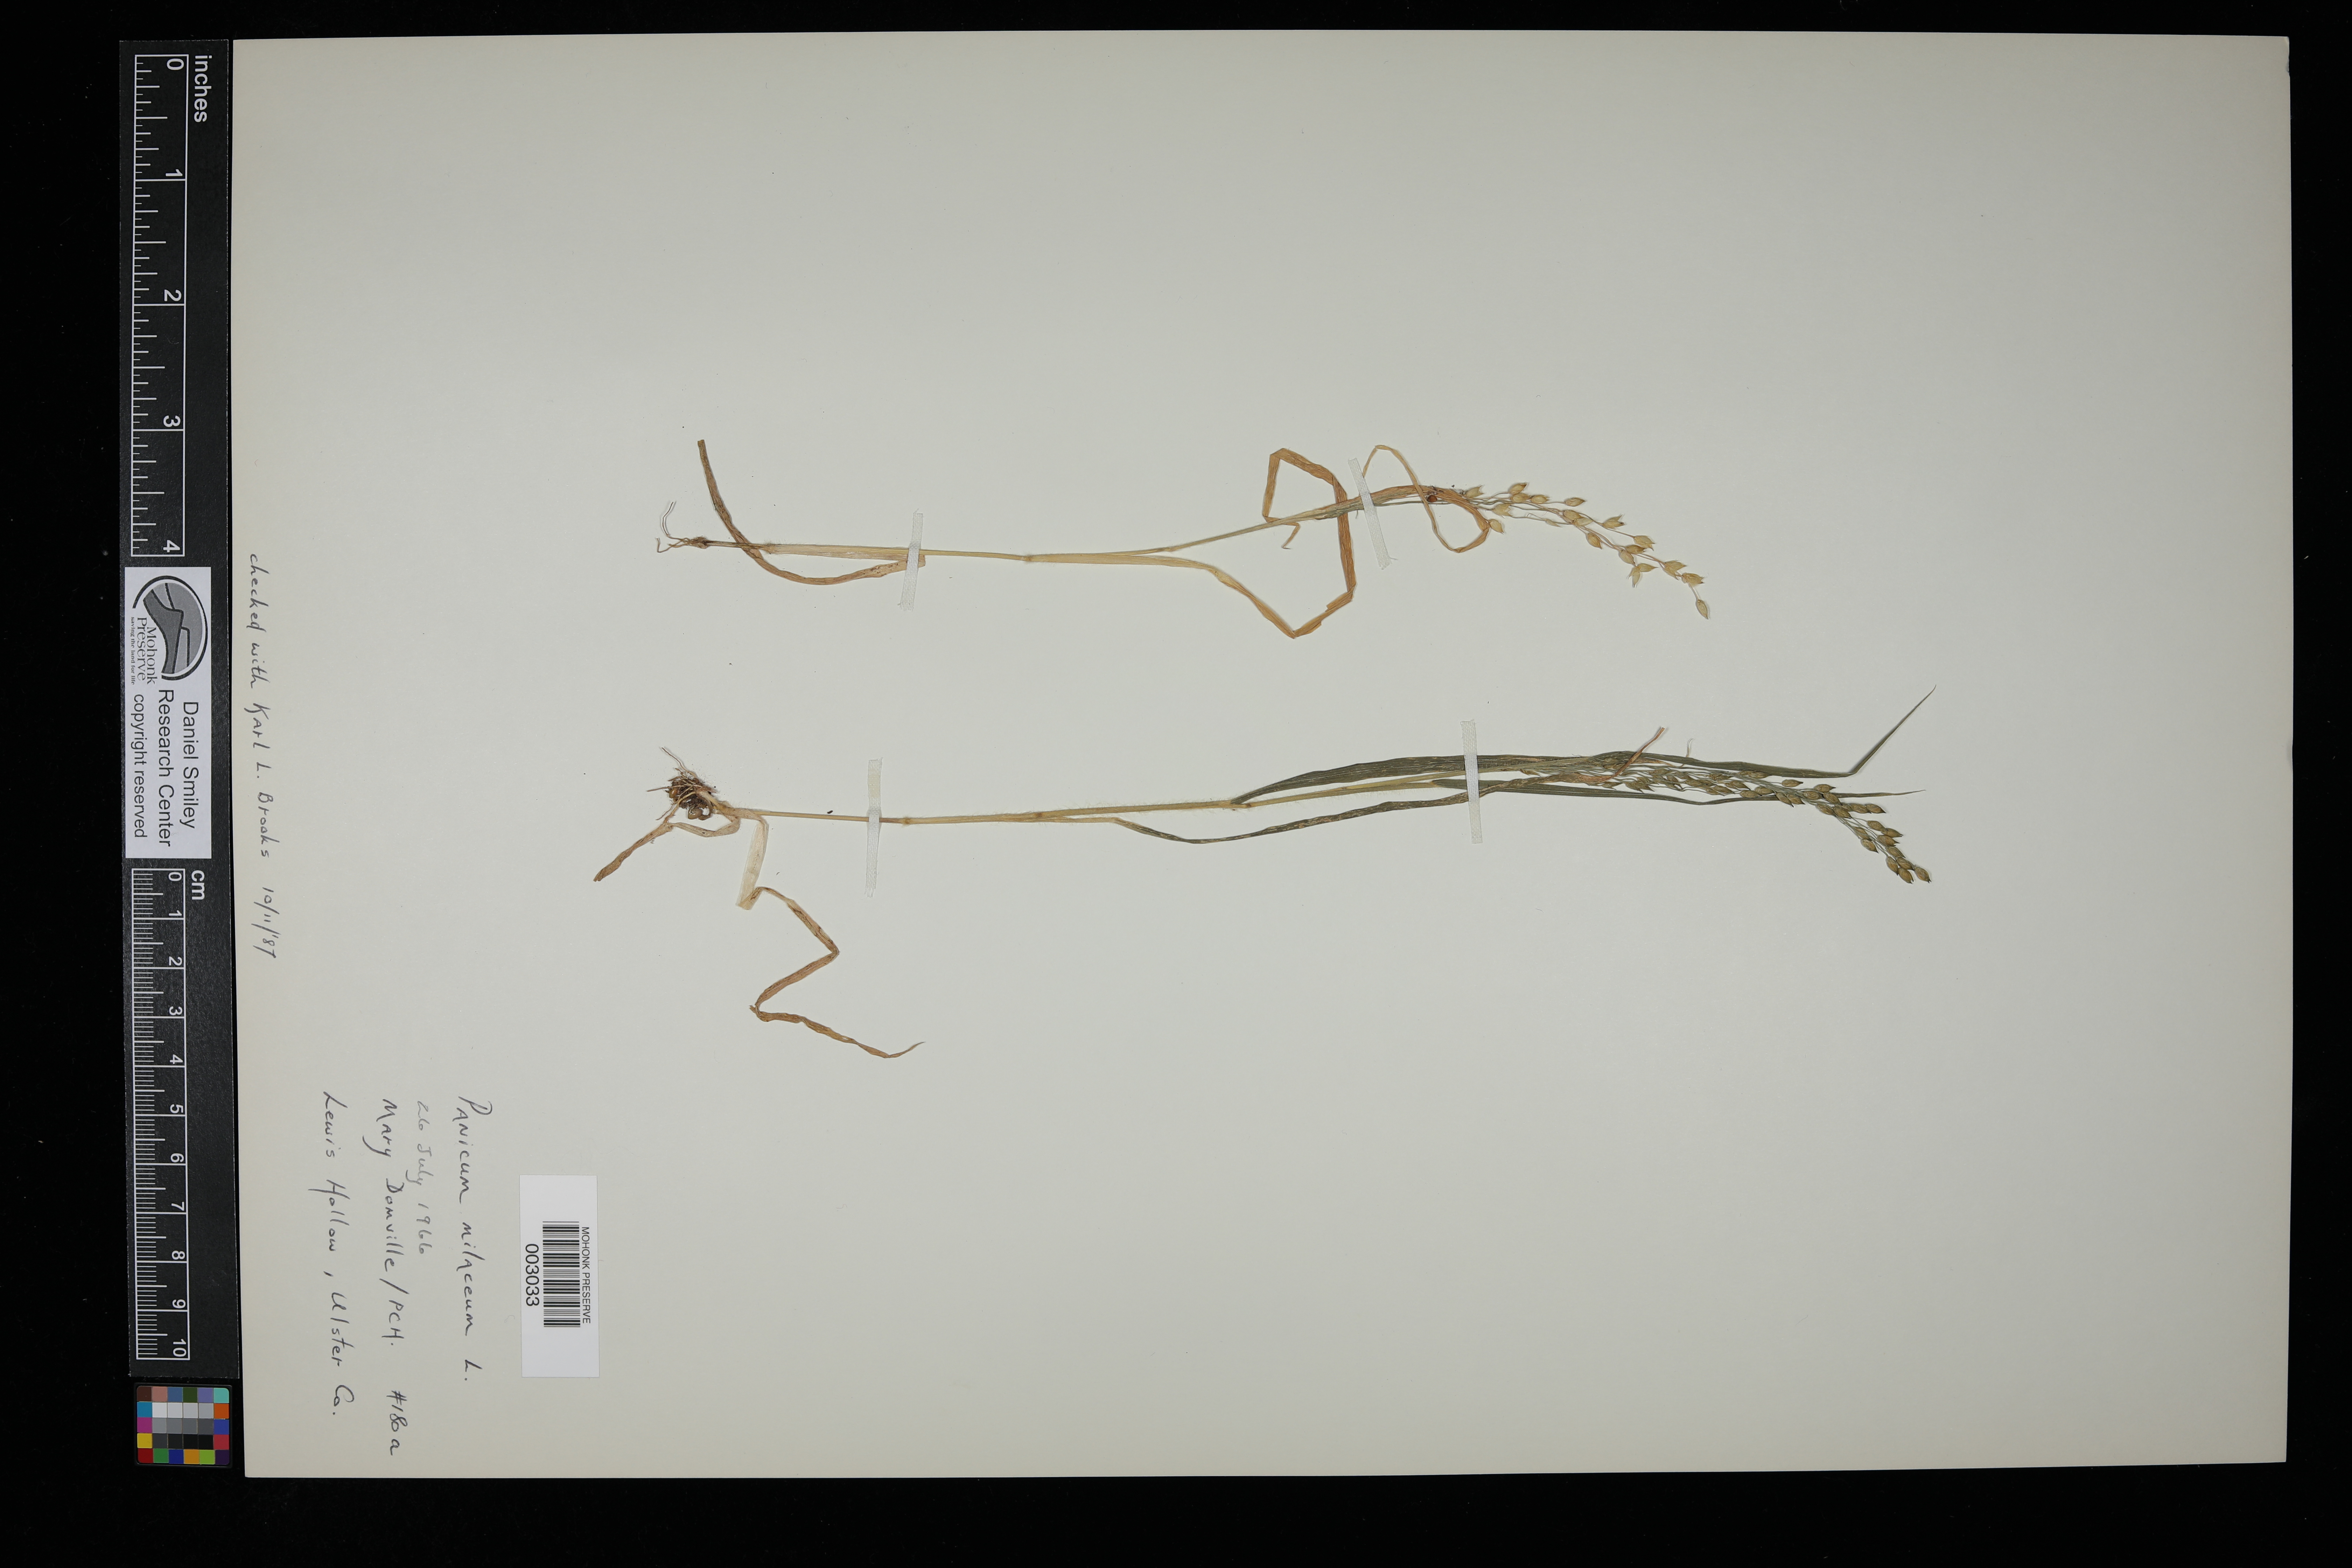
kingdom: Plantae
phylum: Tracheophyta
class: Liliopsida
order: Poales
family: Poaceae
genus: Panicum
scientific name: Panicum miliaceum
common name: Common millet
